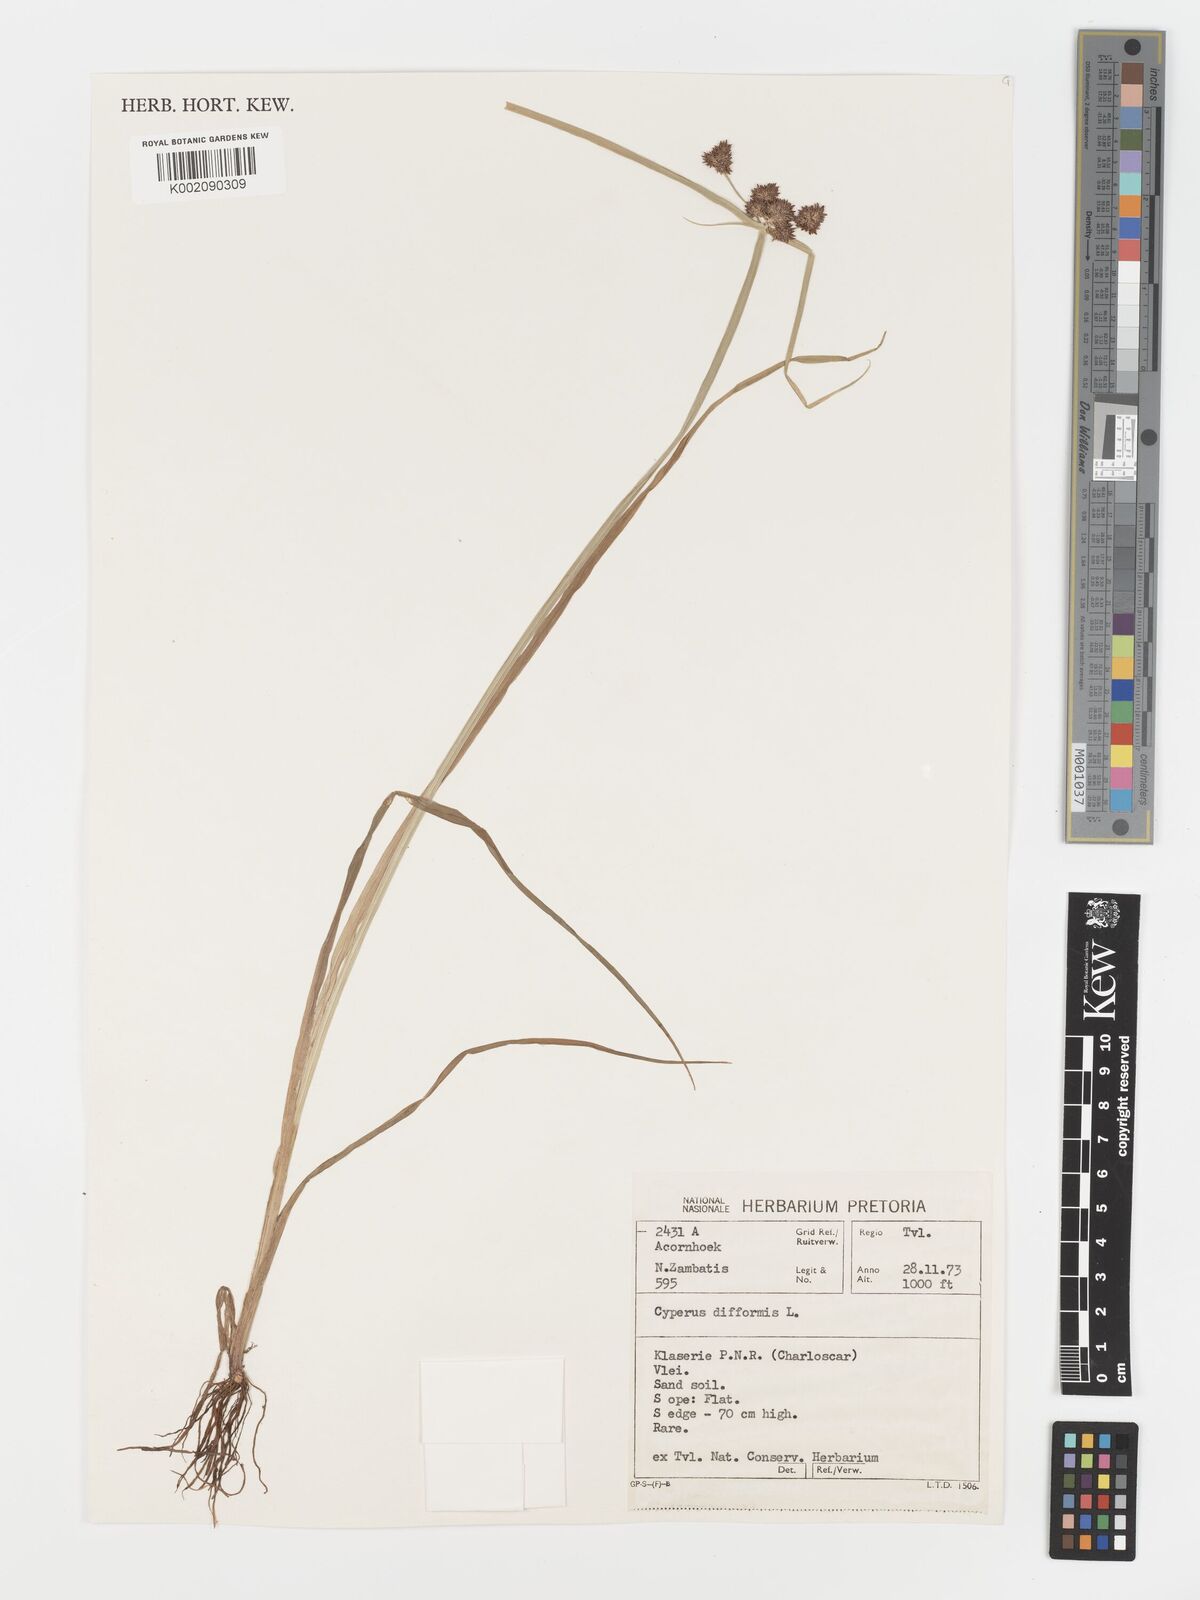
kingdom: Plantae
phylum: Tracheophyta
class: Liliopsida
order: Poales
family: Cyperaceae
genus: Cyperus
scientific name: Cyperus difformis
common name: Variable flatsedge
